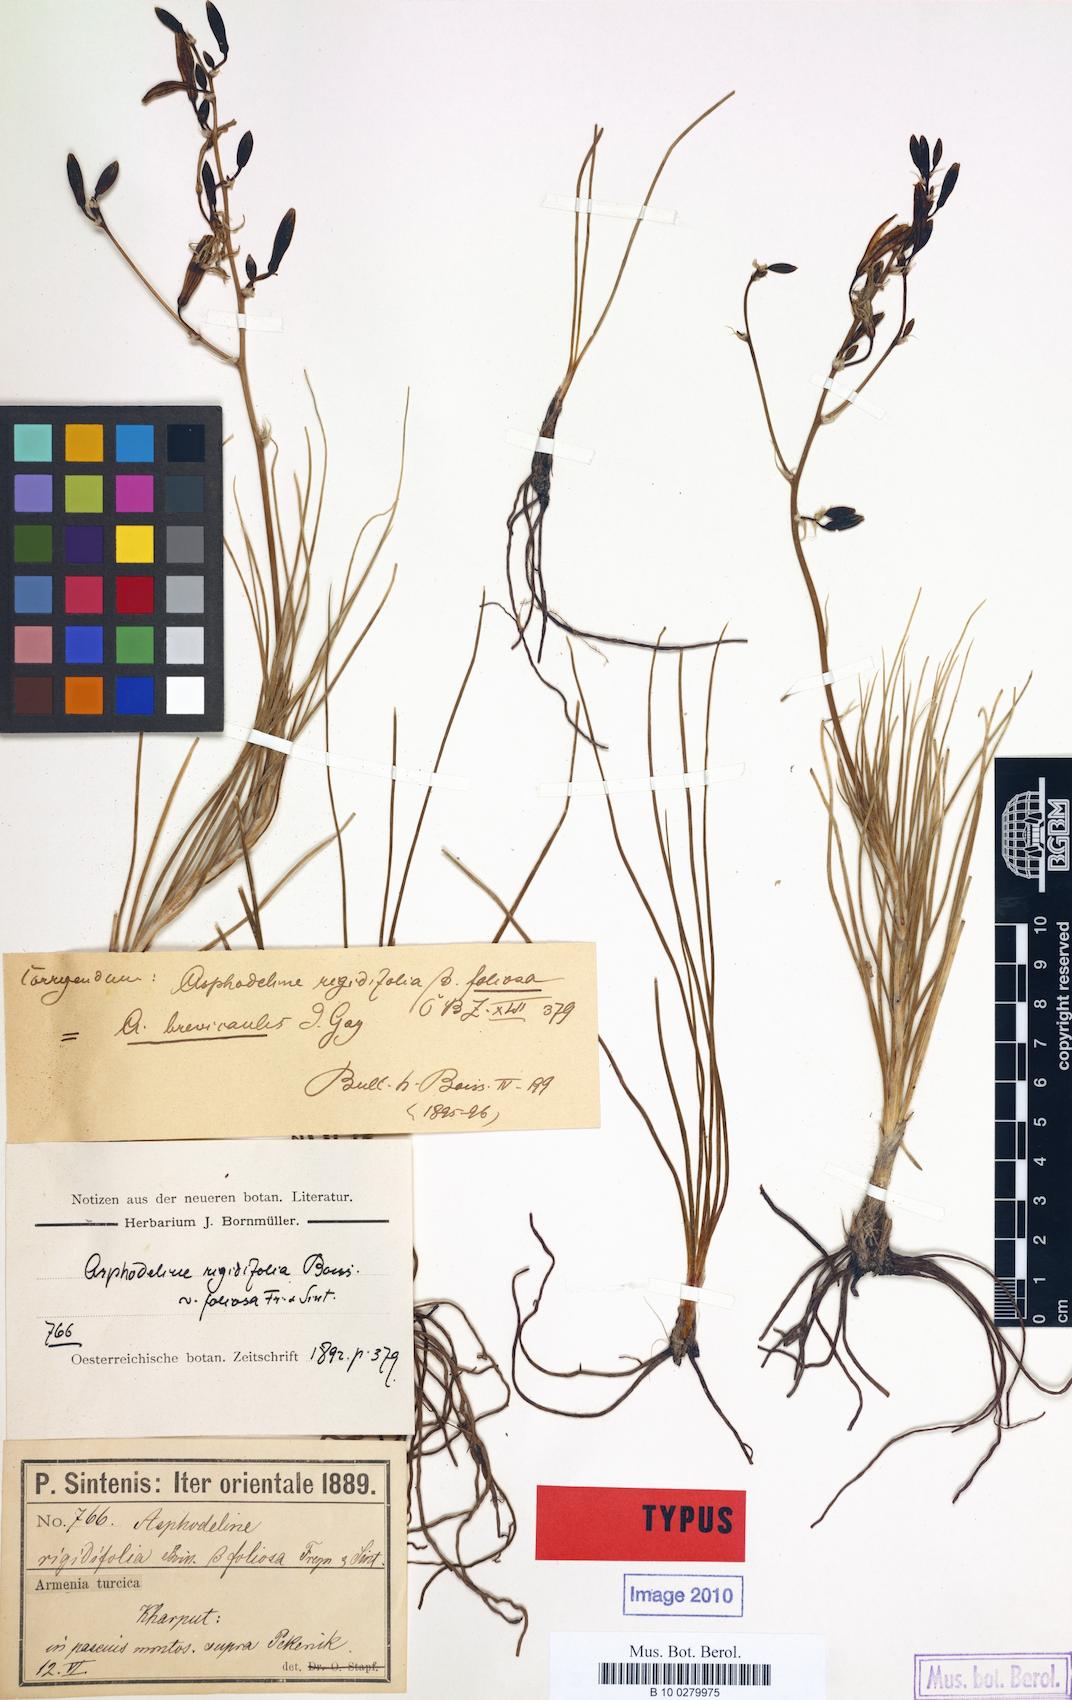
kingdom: Plantae
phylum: Tracheophyta
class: Liliopsida
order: Asparagales
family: Asphodelaceae
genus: Asphodeline
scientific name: Asphodeline brevicaulis
